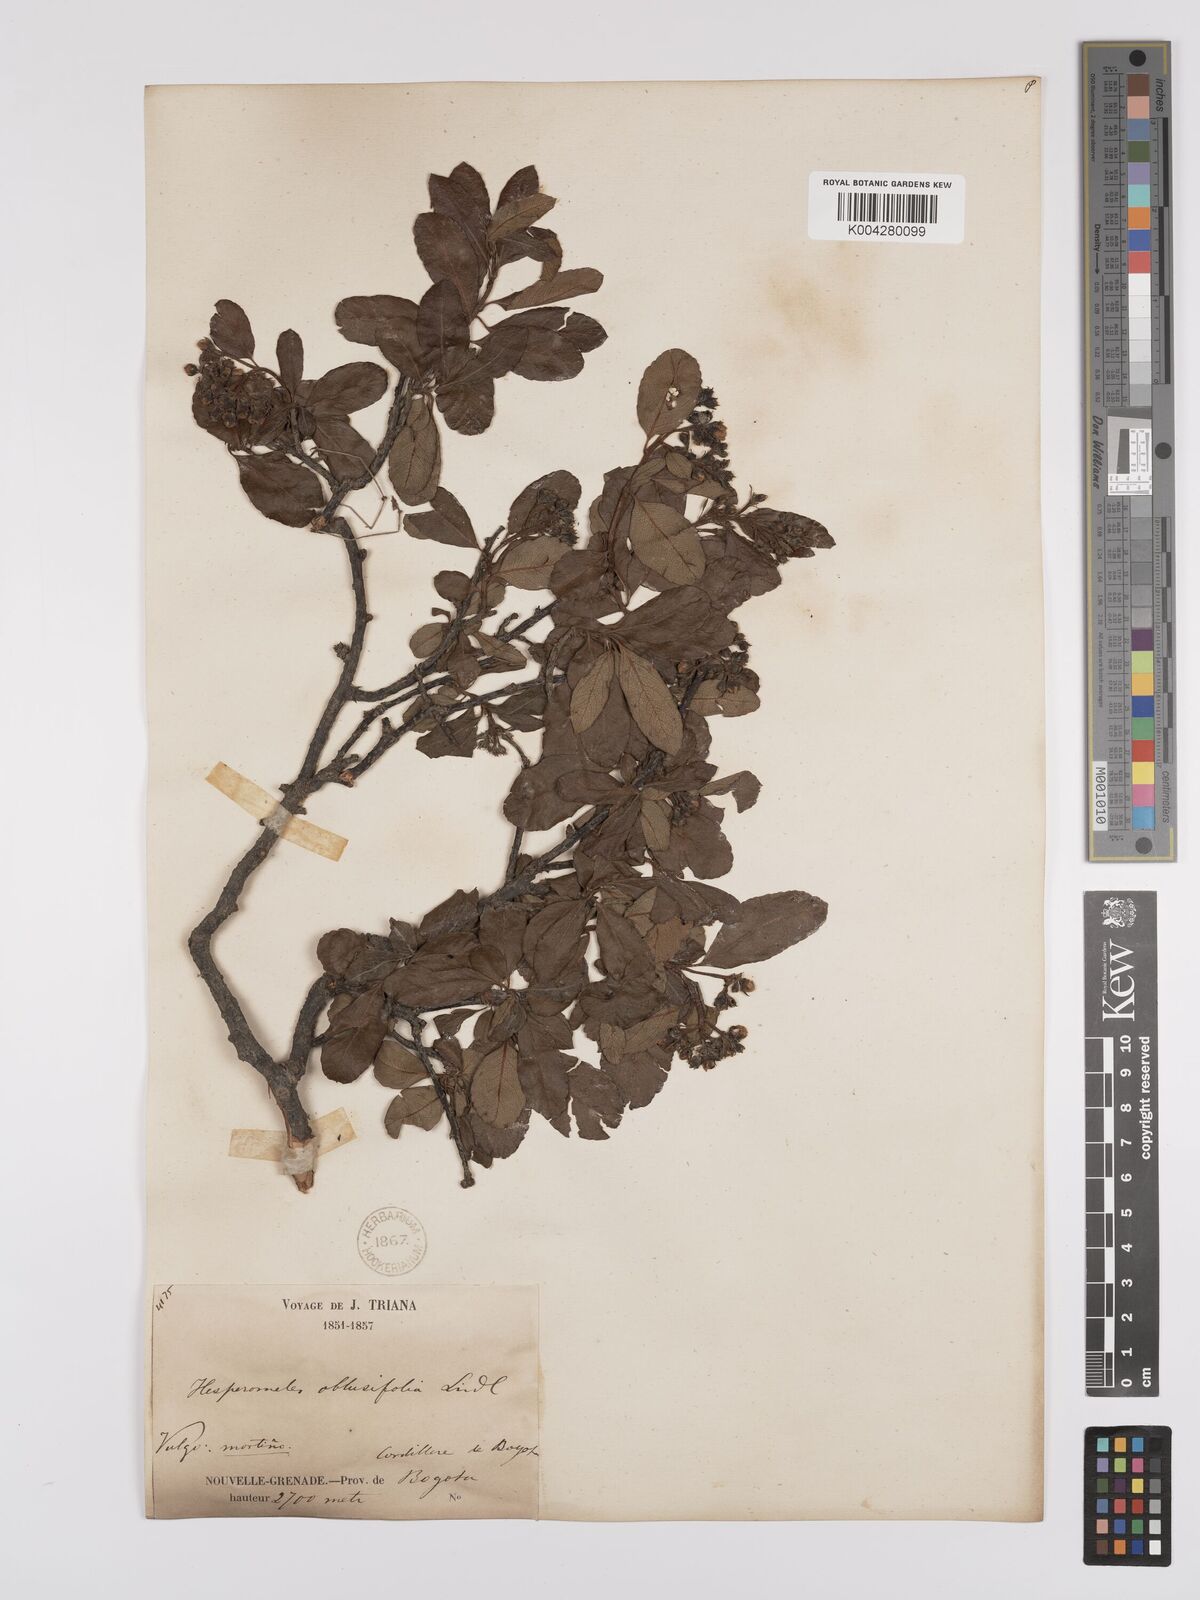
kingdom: Plantae
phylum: Tracheophyta
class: Magnoliopsida
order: Rosales
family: Rosaceae
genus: Hesperomeles
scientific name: Hesperomeles obtusifolia
